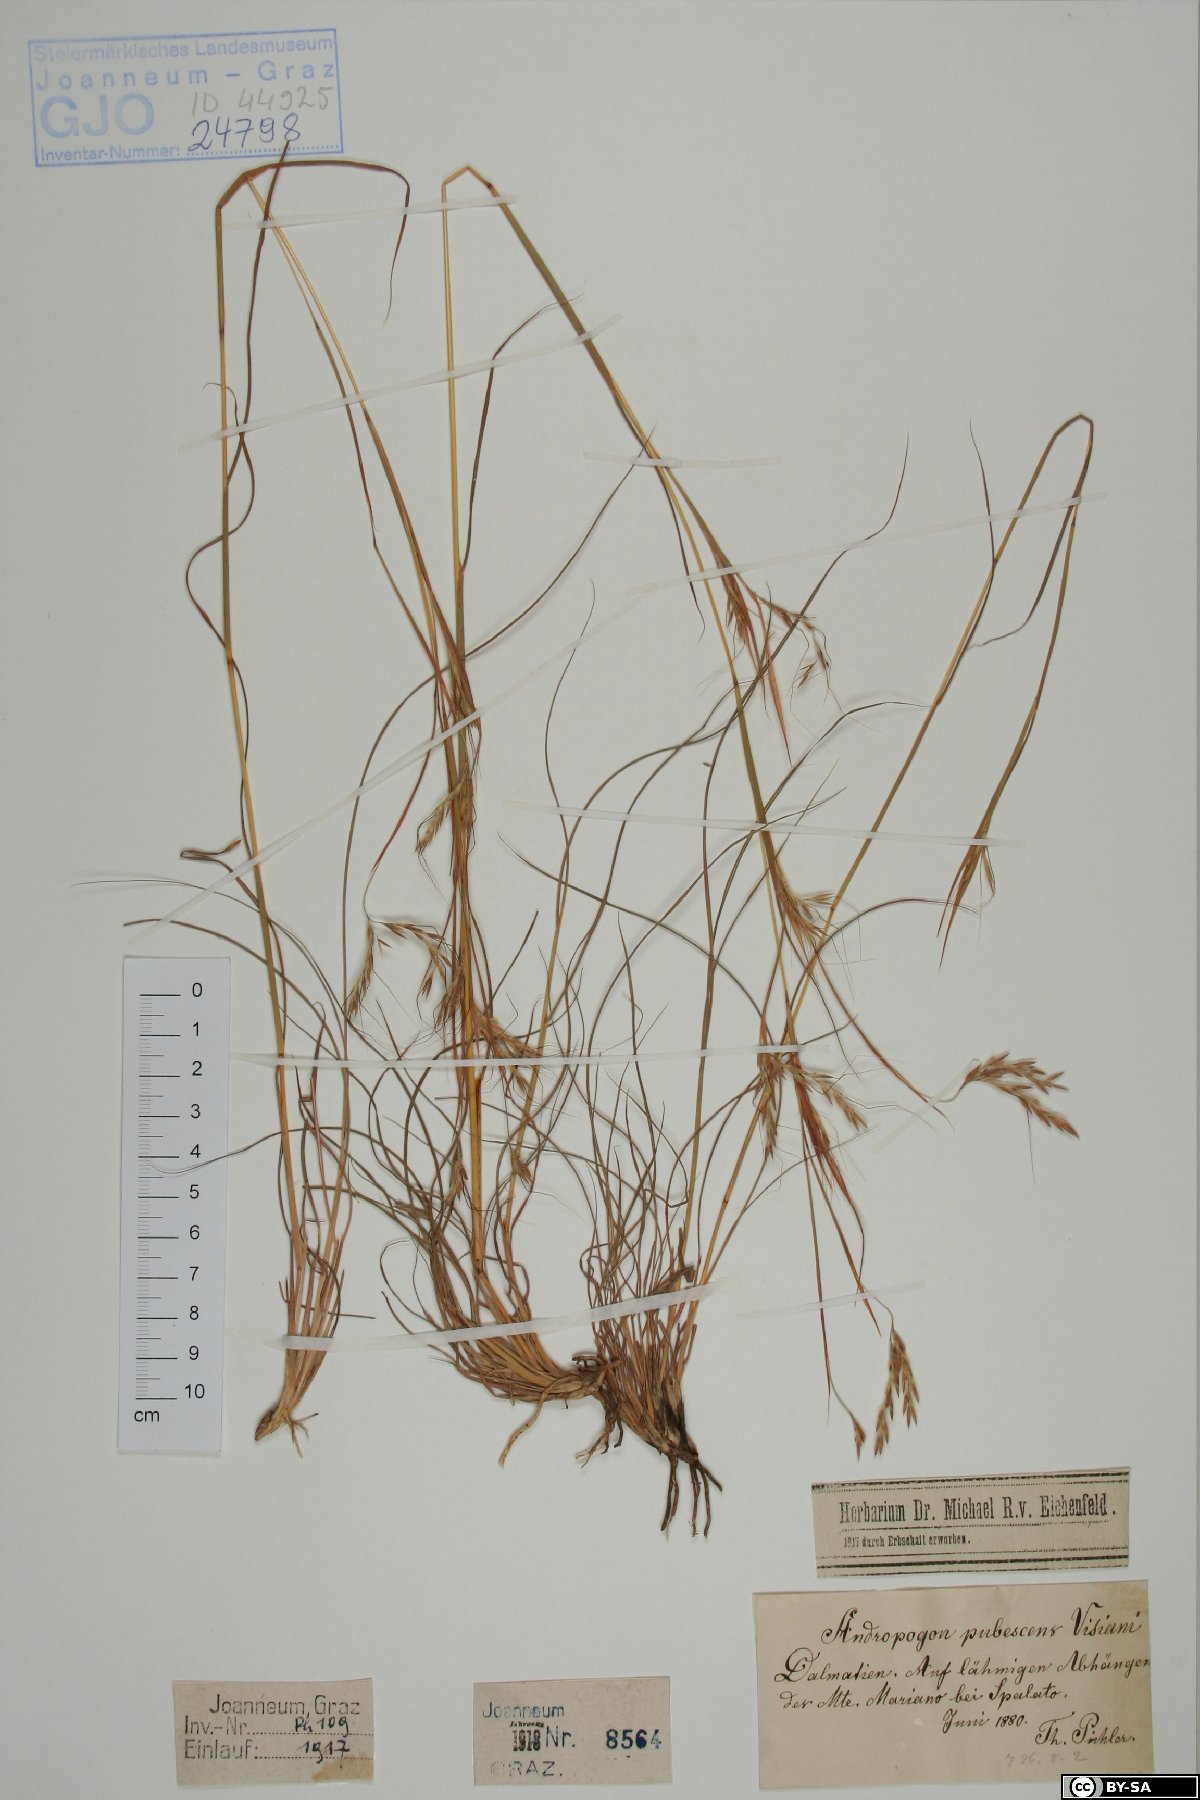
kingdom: Plantae
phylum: Tracheophyta
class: Liliopsida
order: Poales
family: Poaceae
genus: Hyparrhenia
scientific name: Hyparrhenia hirta
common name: Thatching grass
